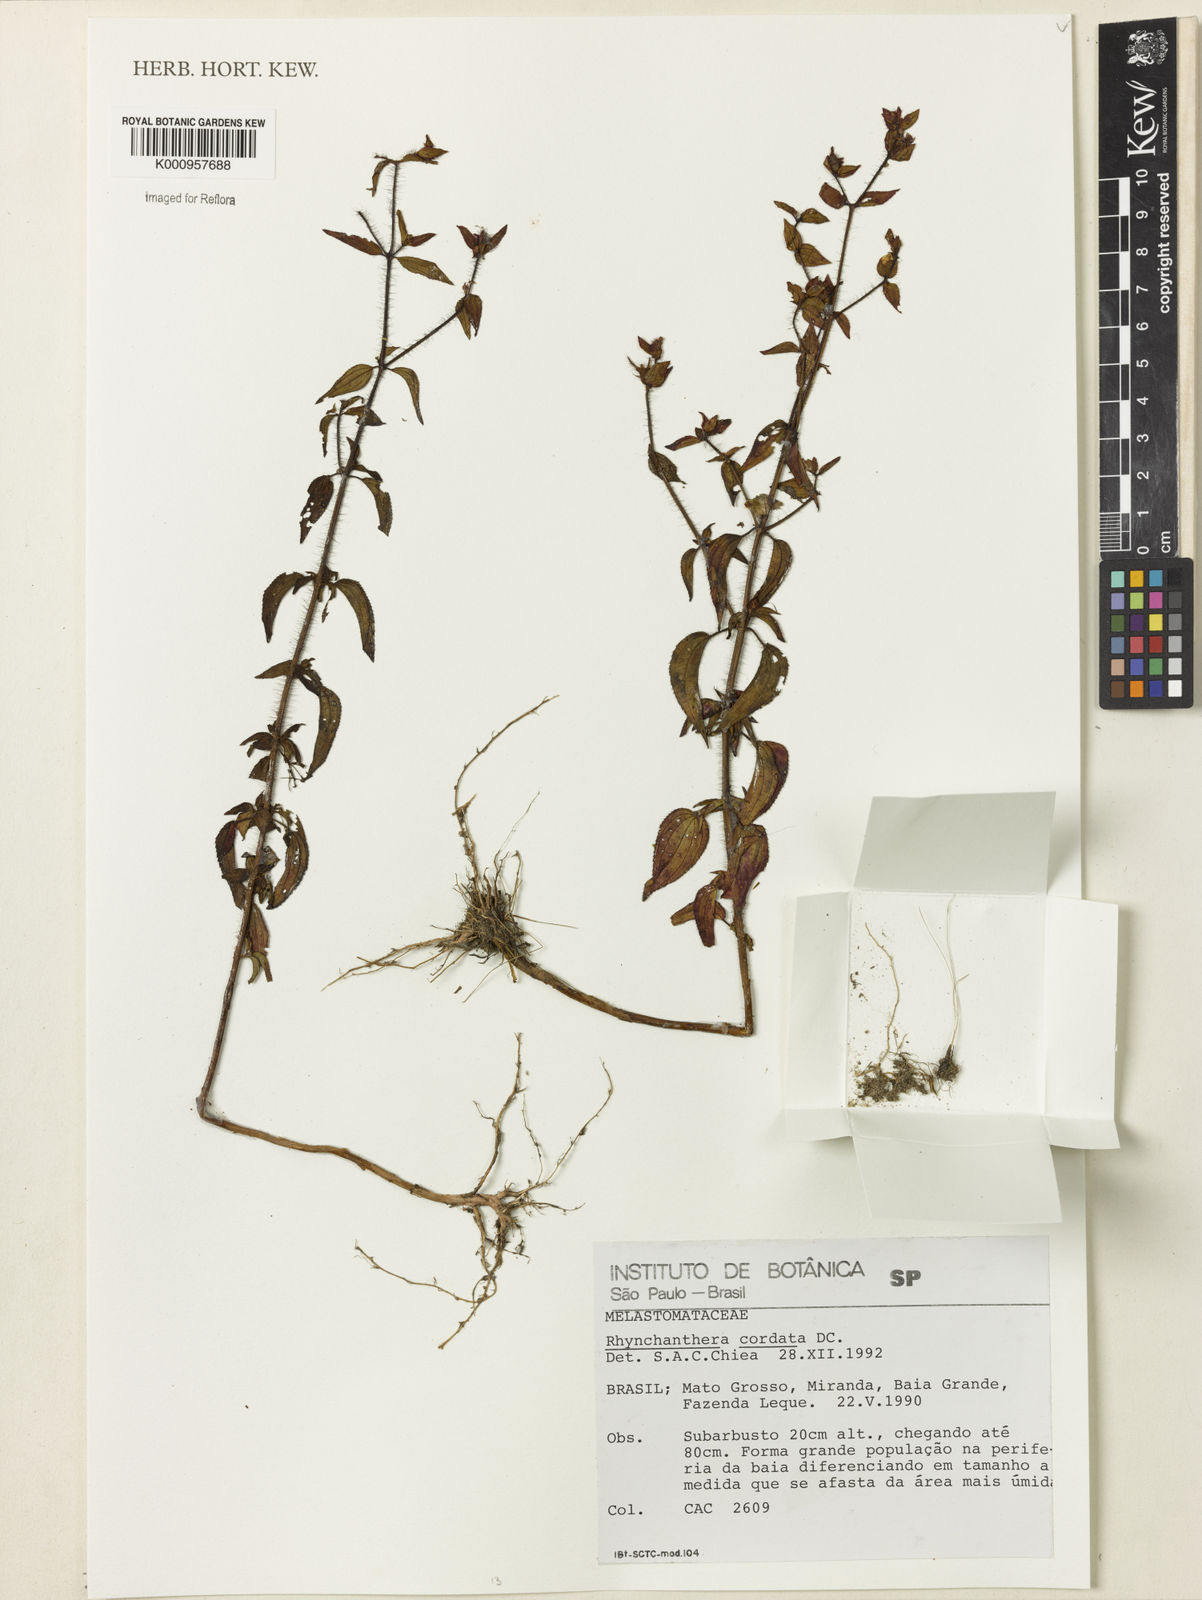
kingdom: Plantae
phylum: Tracheophyta
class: Magnoliopsida
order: Myrtales
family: Melastomataceae
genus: Rhynchanthera
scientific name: Rhynchanthera cordata
